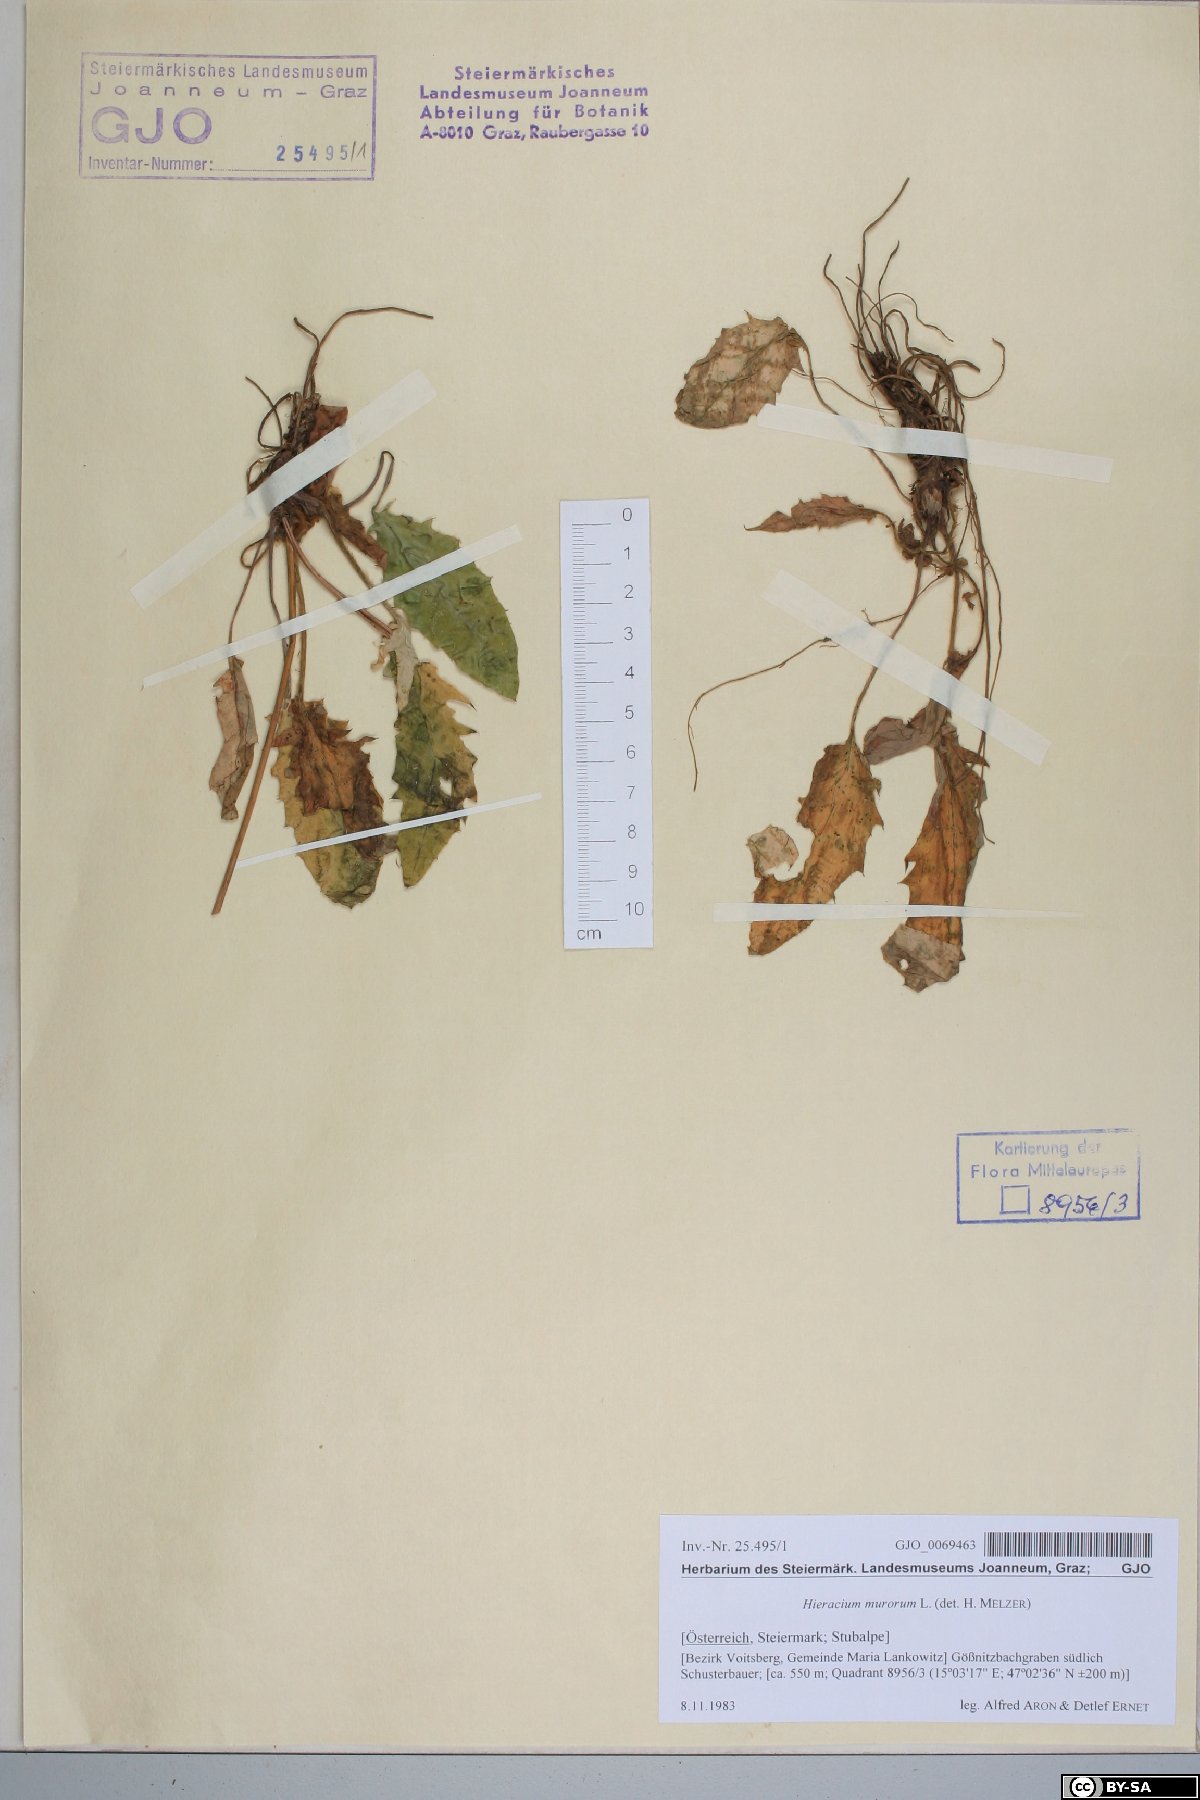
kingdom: Plantae
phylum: Tracheophyta
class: Magnoliopsida
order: Asterales
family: Asteraceae
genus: Hieracium
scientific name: Hieracium murorum
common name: Wall hawkweed
